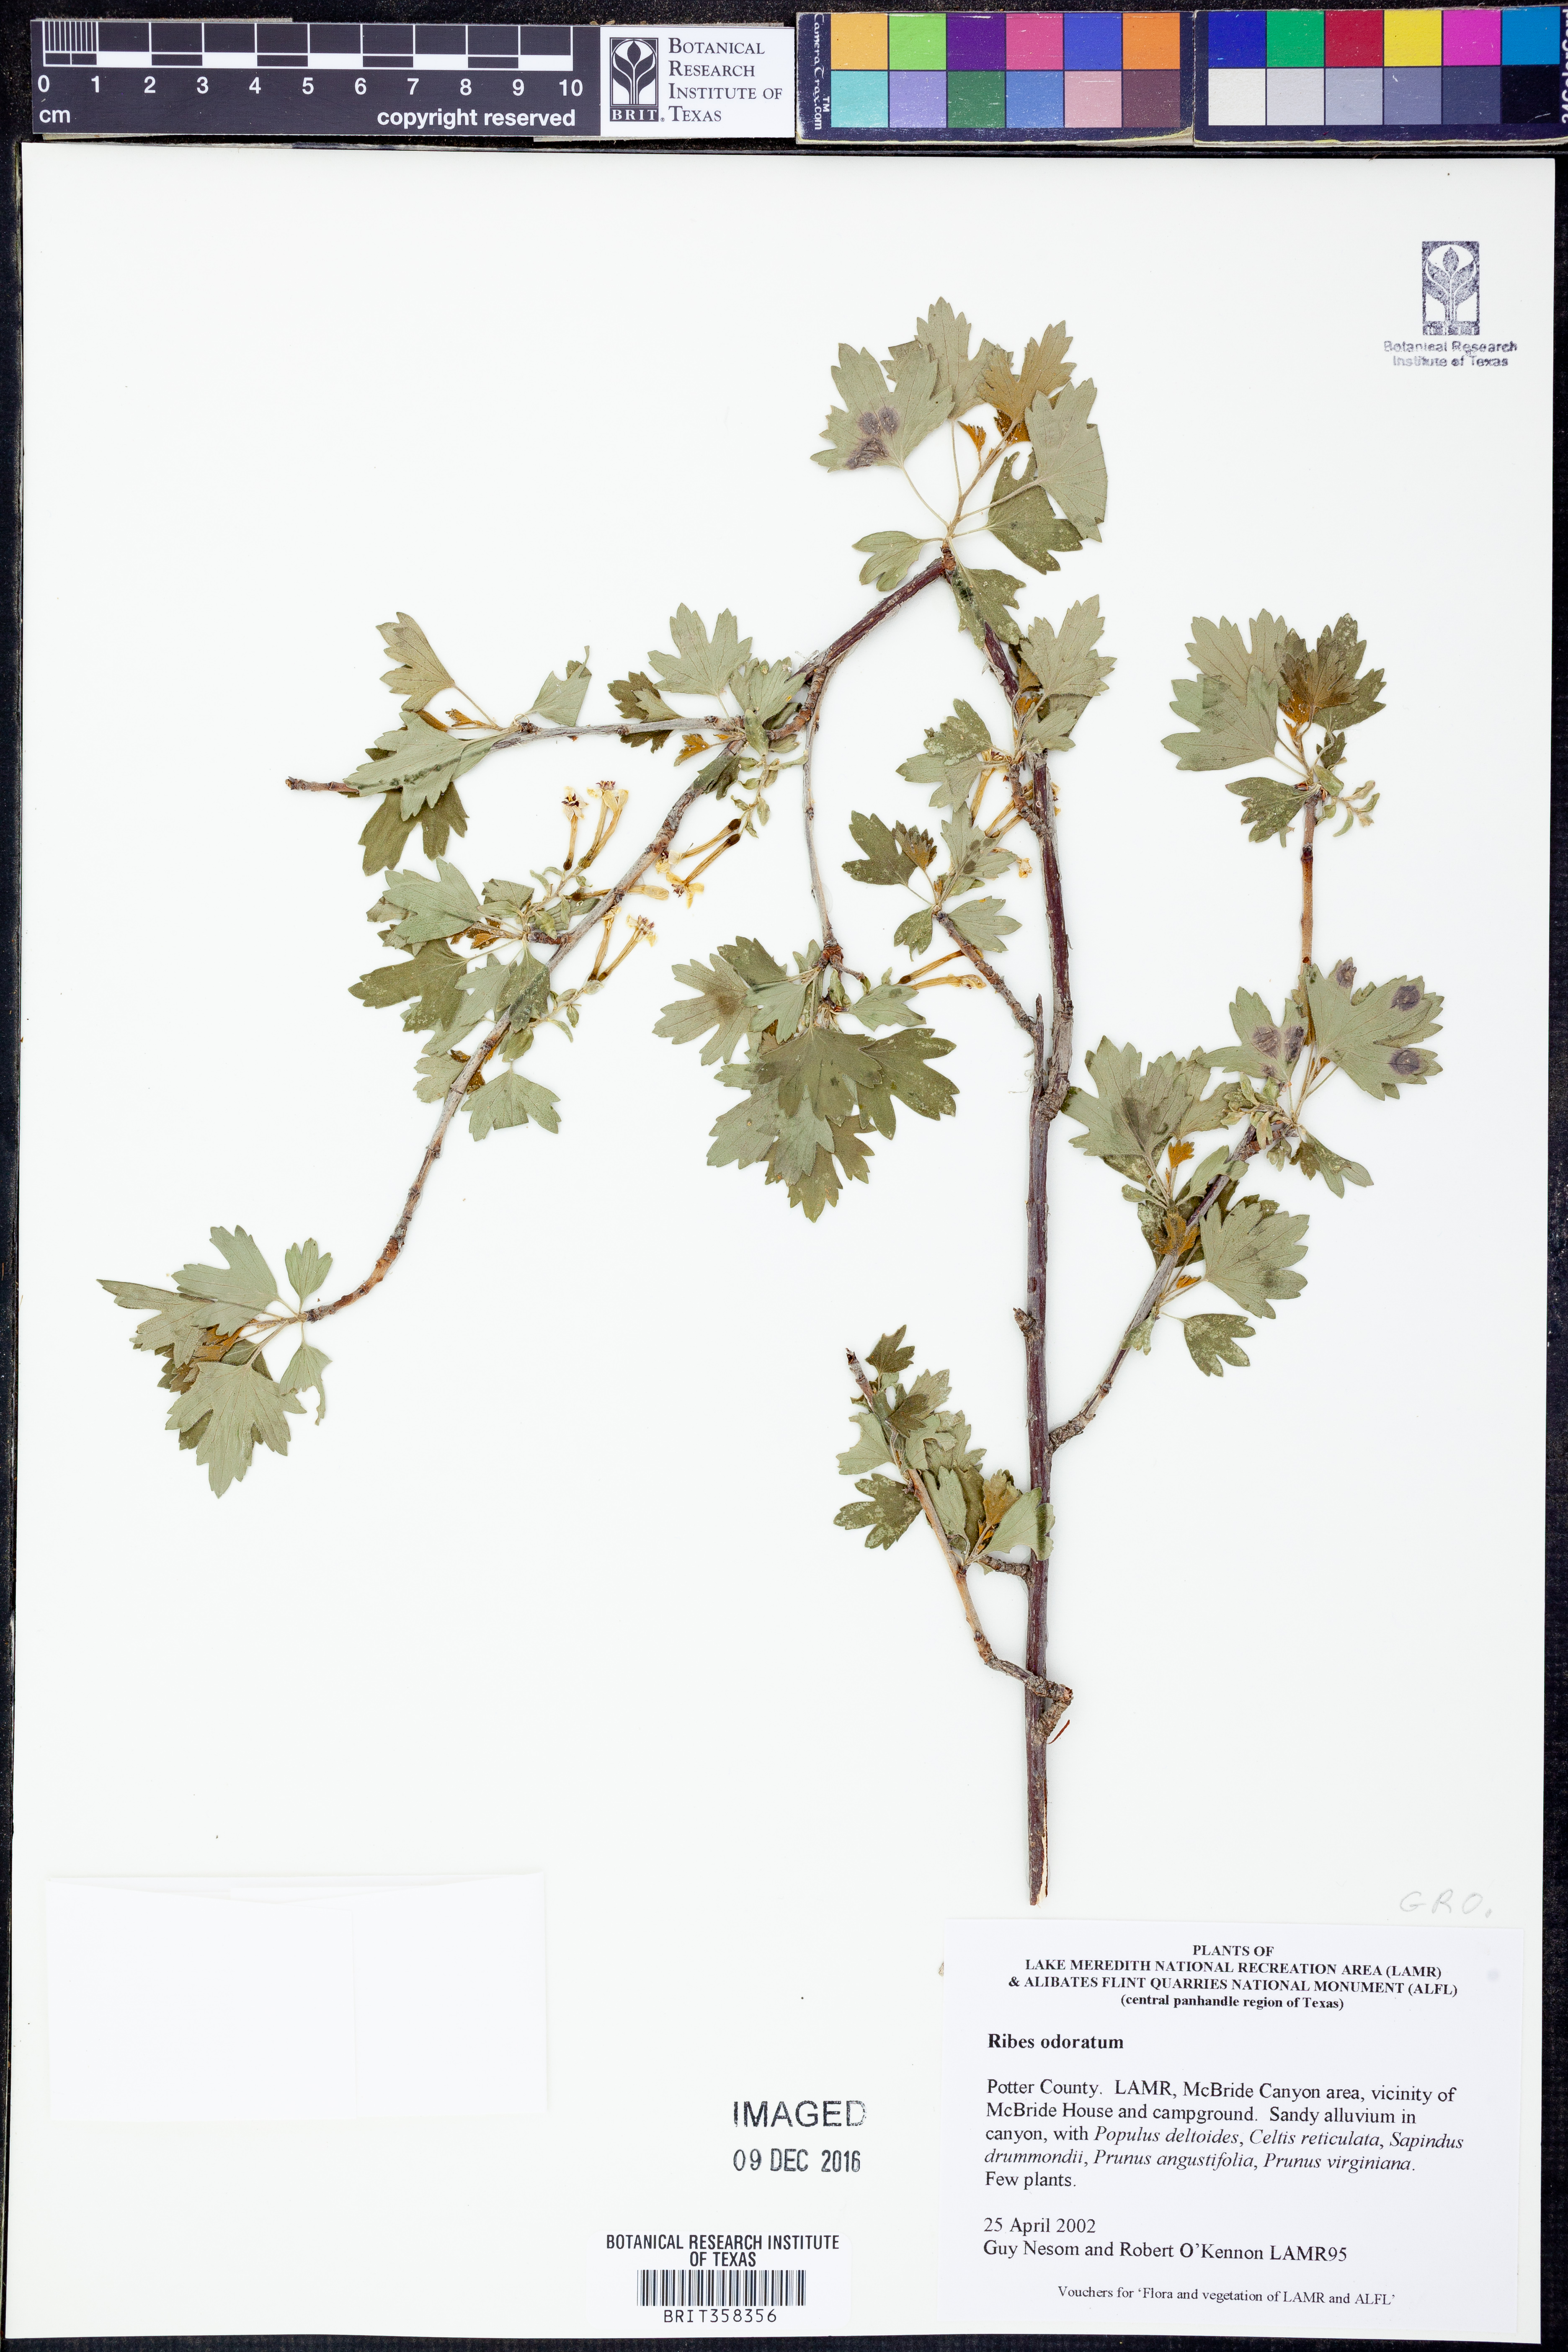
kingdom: Plantae
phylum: Tracheophyta
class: Magnoliopsida
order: Saxifragales
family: Grossulariaceae
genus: Ribes
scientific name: Ribes aureum
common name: Golden currant
